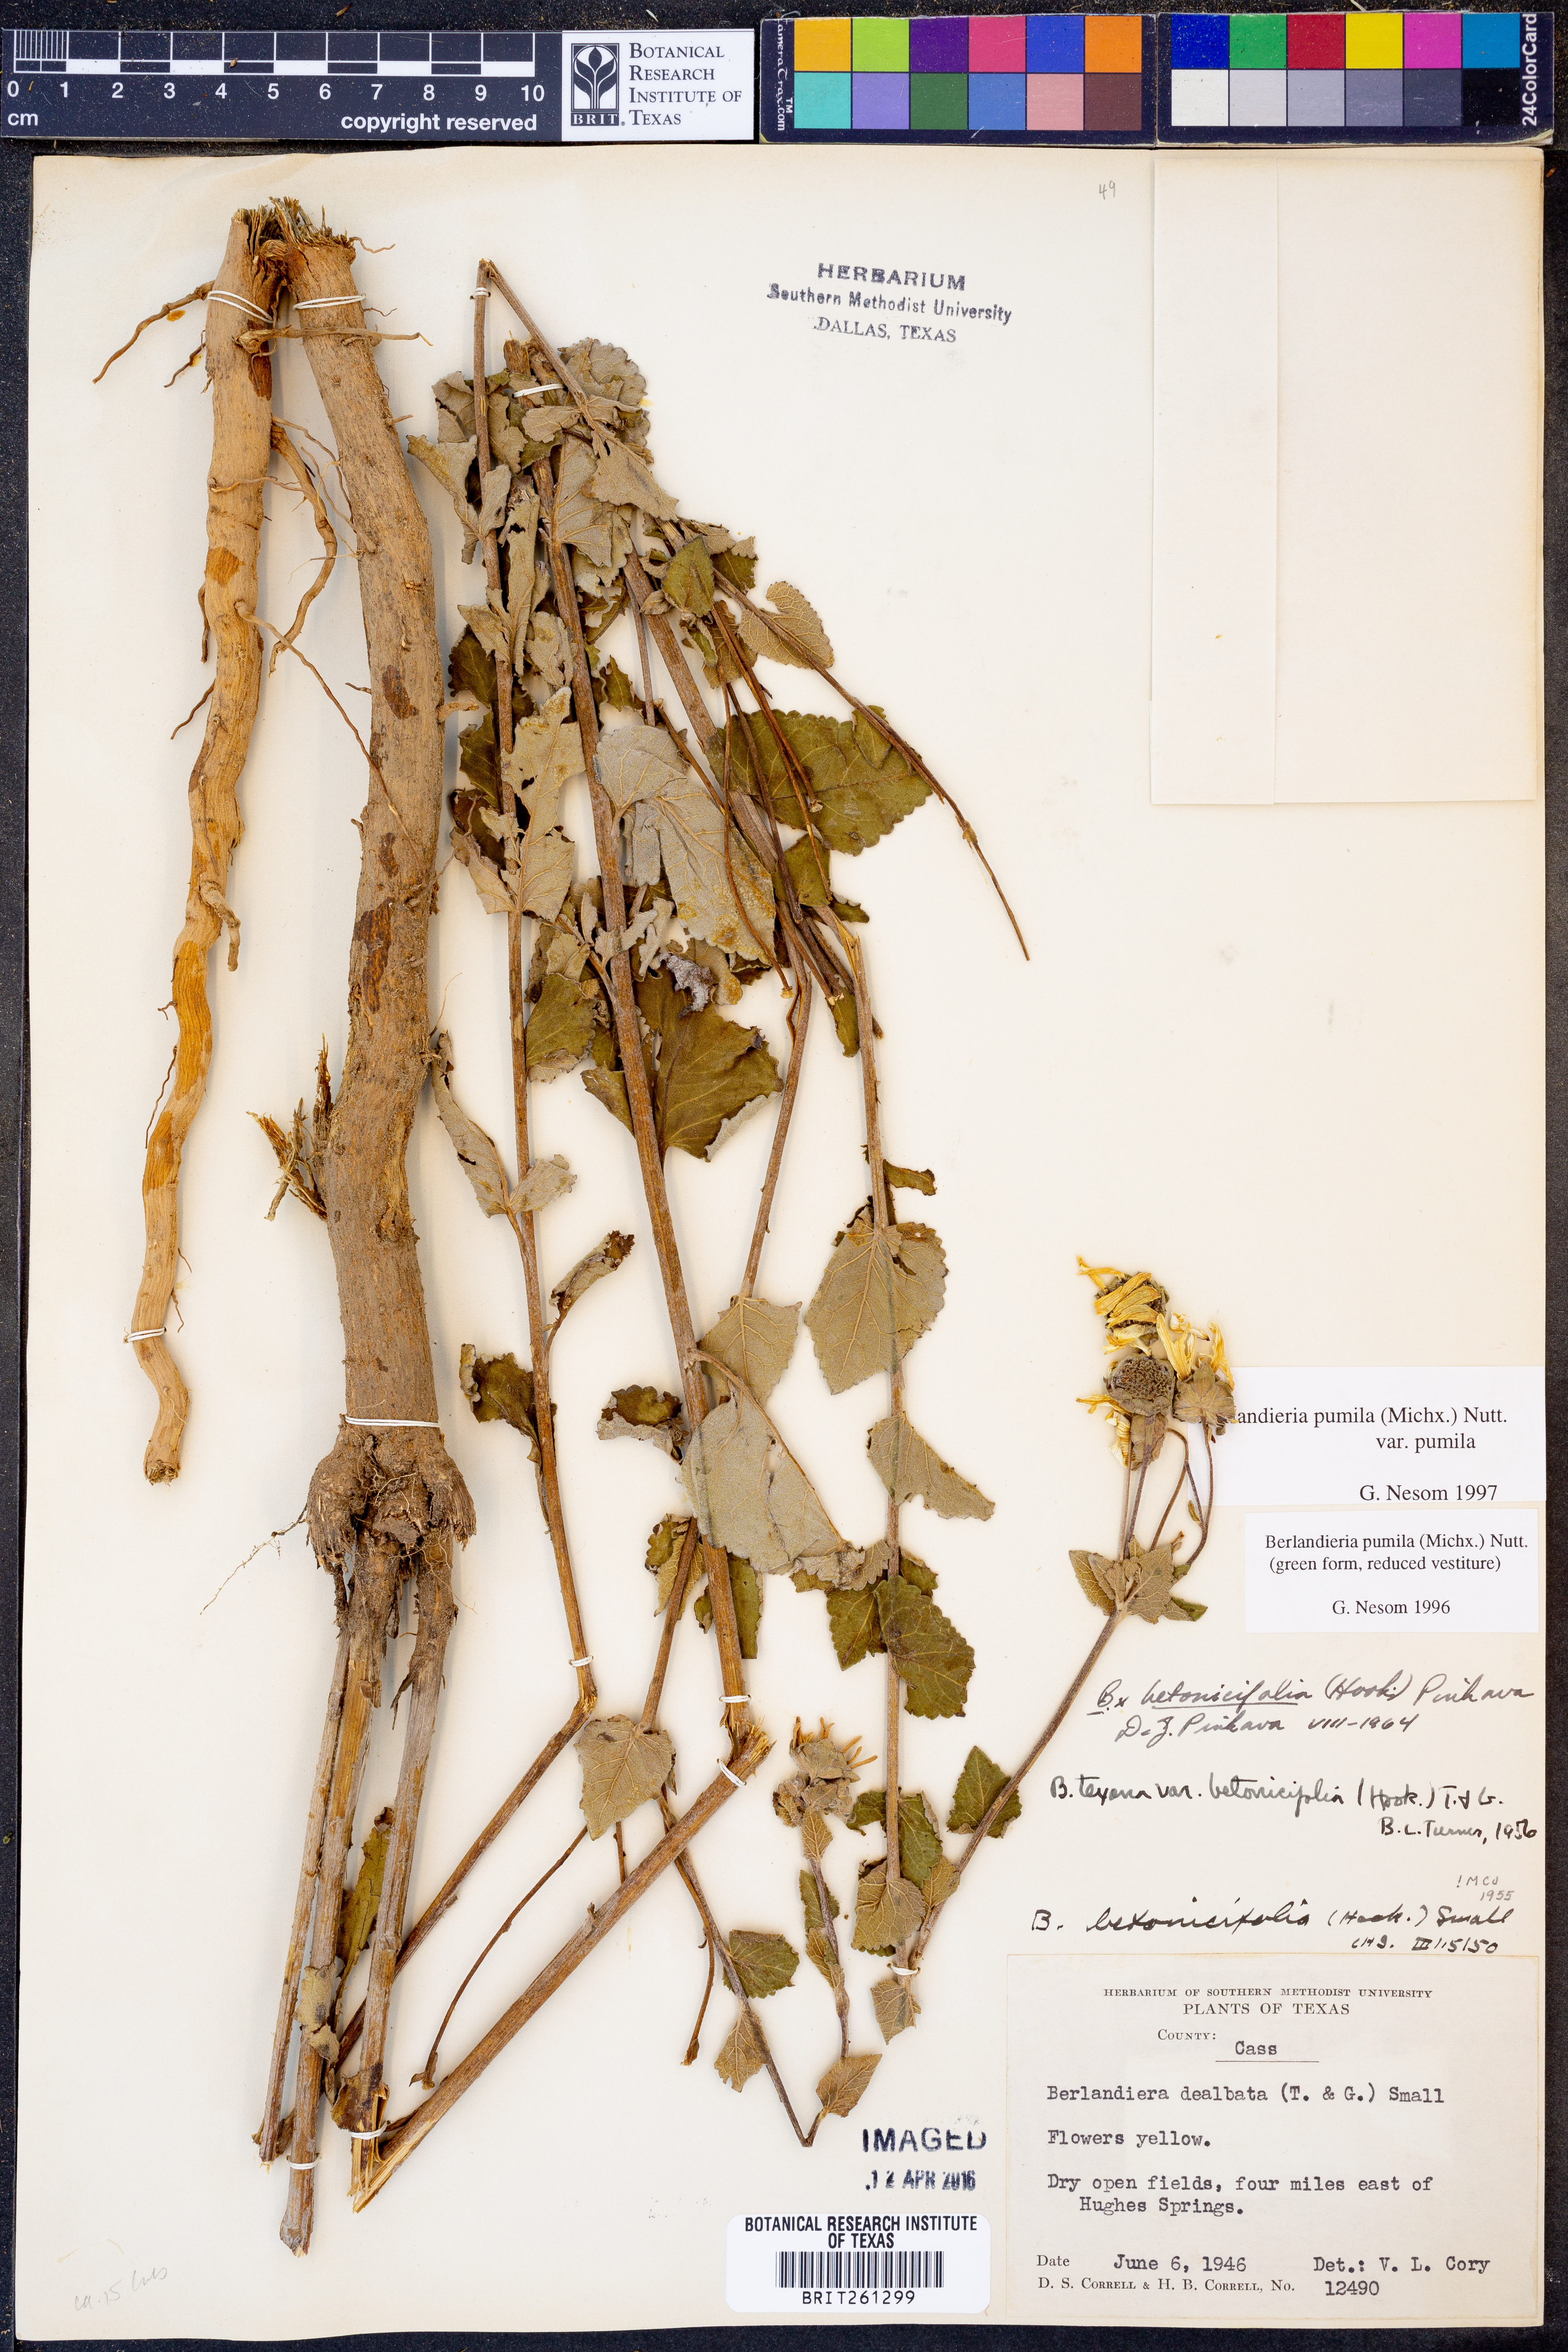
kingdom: Plantae
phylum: Tracheophyta
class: Magnoliopsida
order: Asterales
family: Asteraceae
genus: Berlandiera
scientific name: Berlandiera pumila
